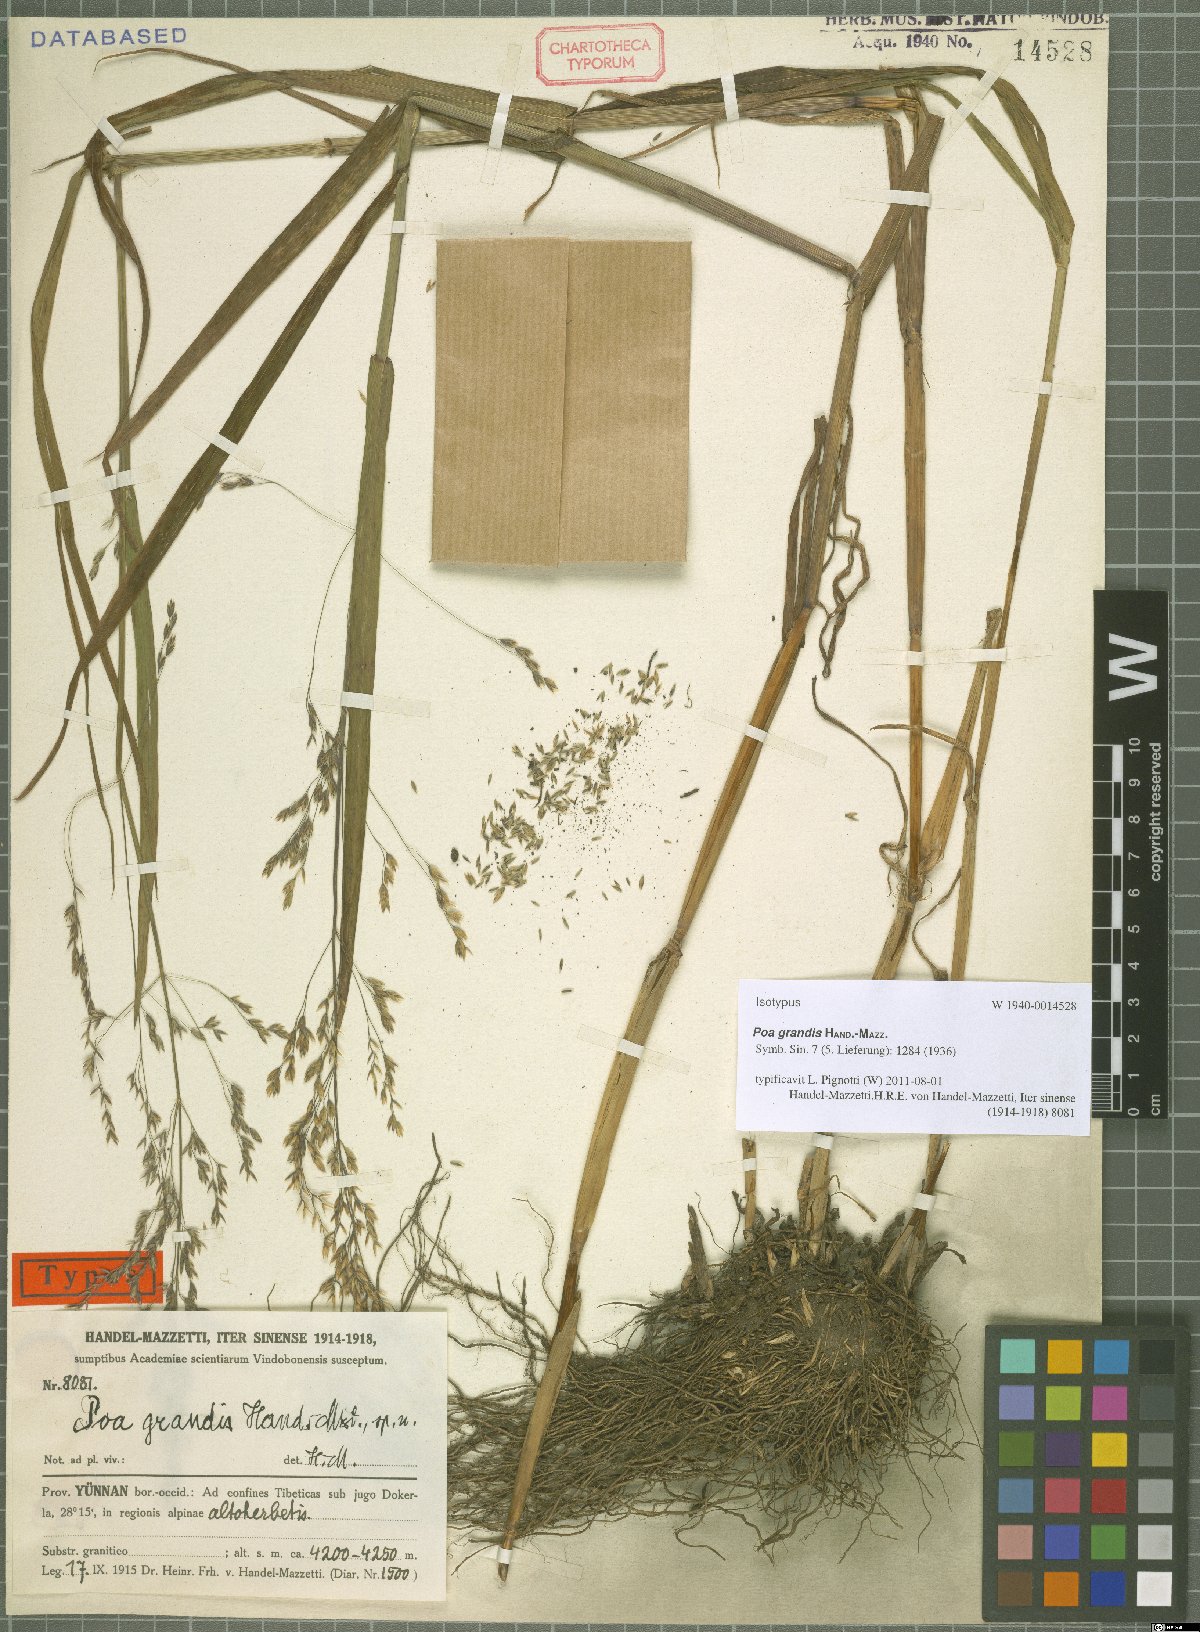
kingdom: Plantae
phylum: Tracheophyta
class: Liliopsida
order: Poales
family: Poaceae
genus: Poa
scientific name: Poa grandis
